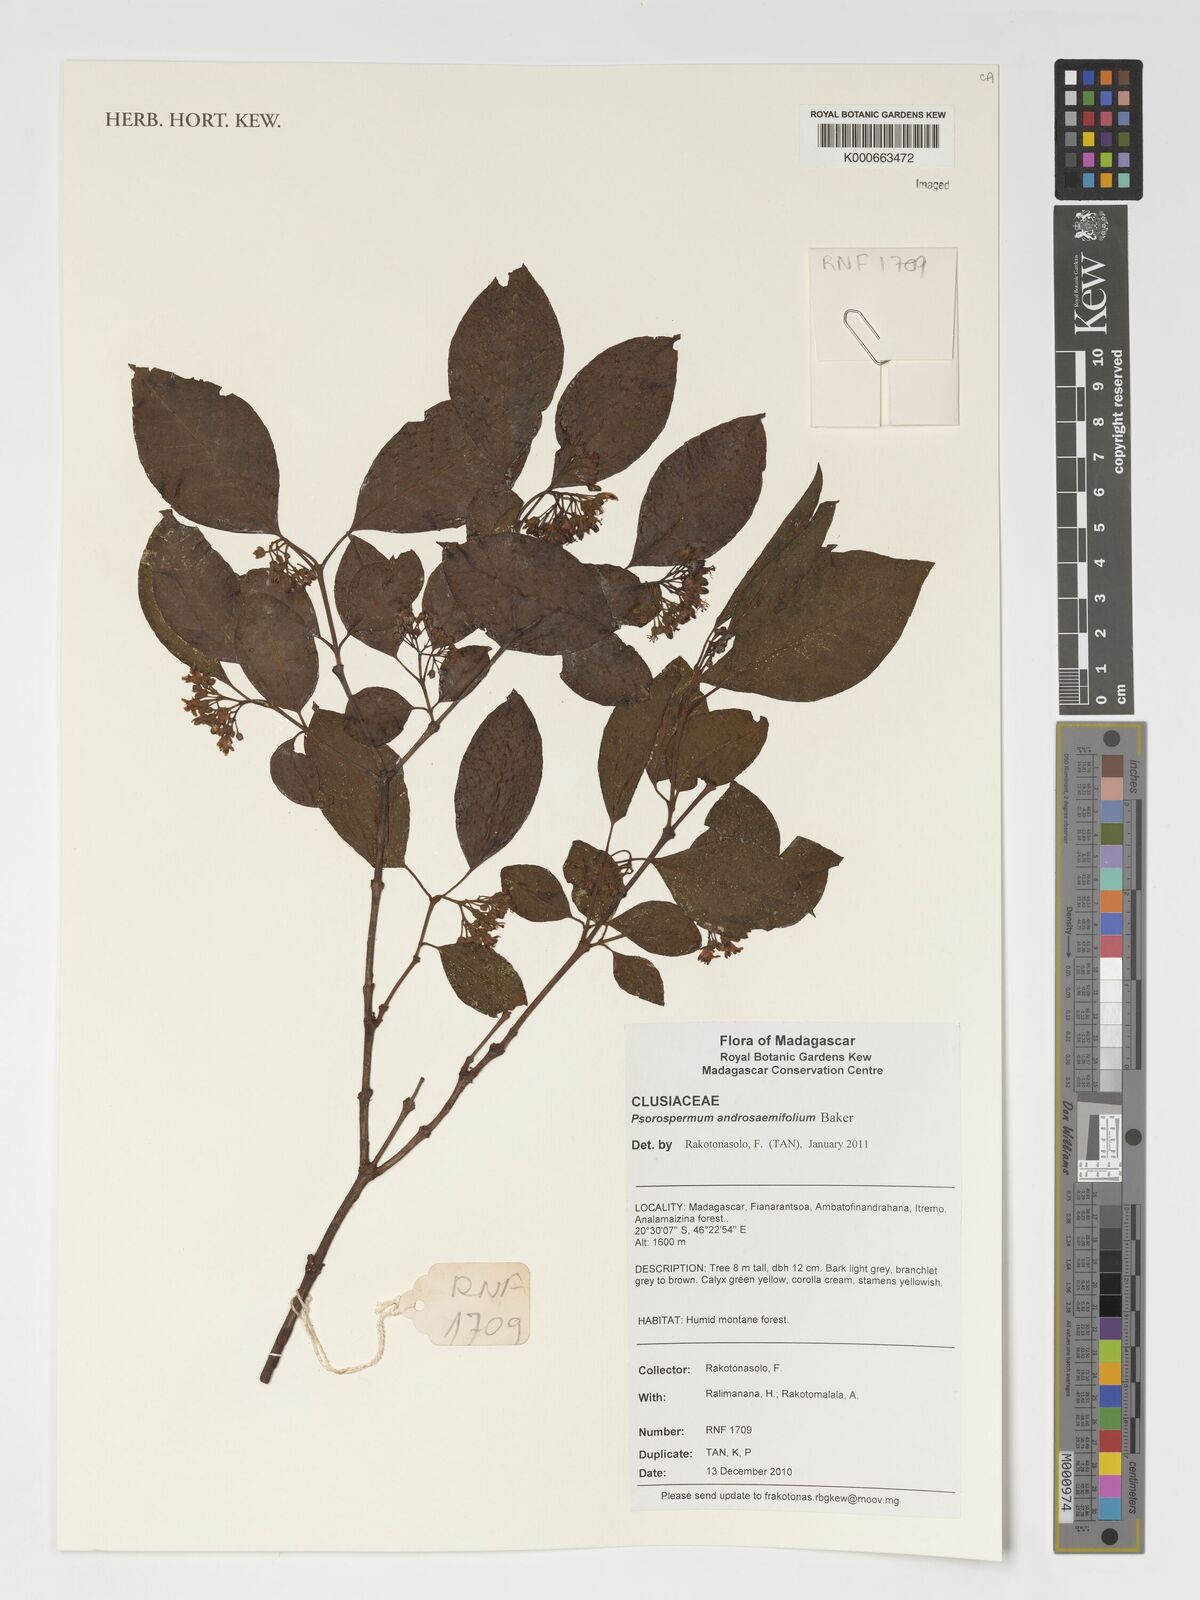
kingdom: Plantae
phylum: Tracheophyta
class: Magnoliopsida
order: Malpighiales
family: Hypericaceae
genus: Psorospermum
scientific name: Psorospermum androsaemifolium
